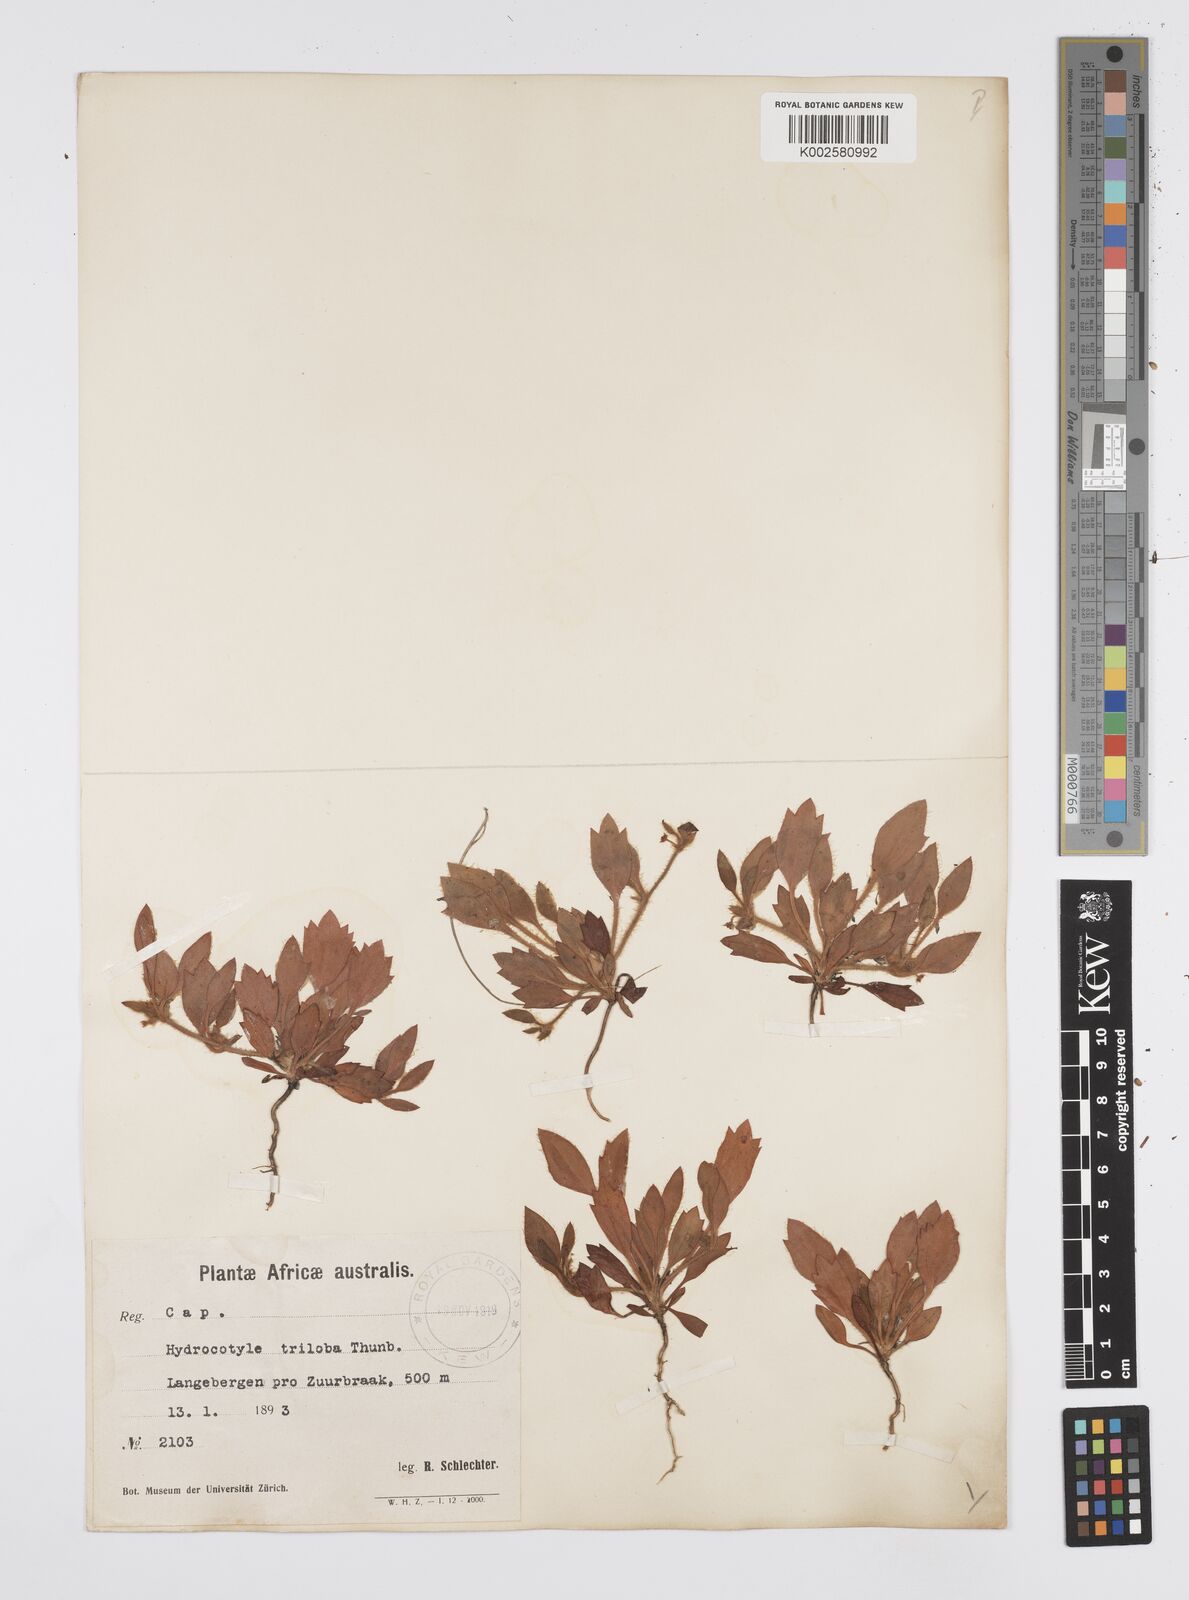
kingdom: Plantae
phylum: Tracheophyta
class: Magnoliopsida
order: Apiales
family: Apiaceae
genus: Centella
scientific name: Centella montana
